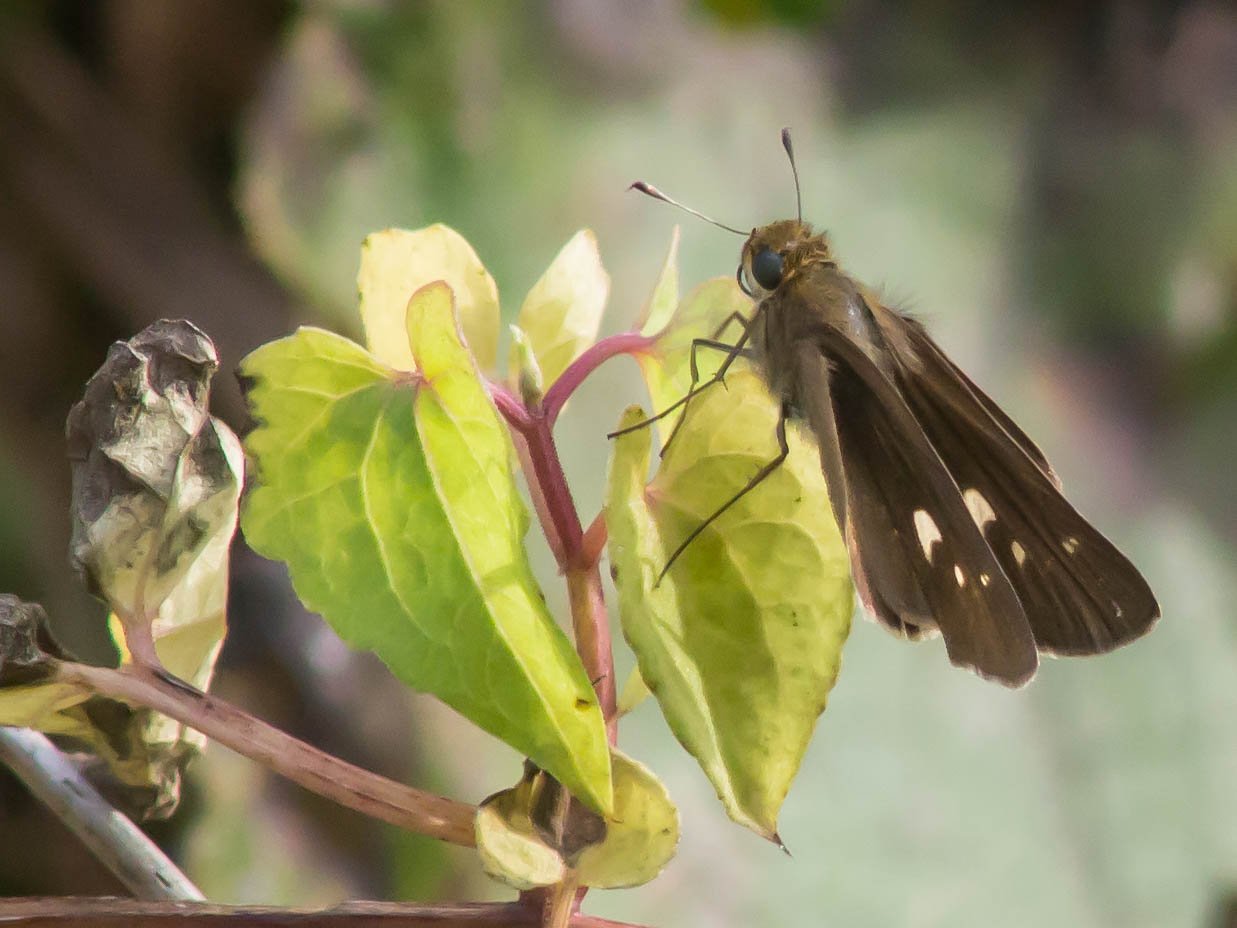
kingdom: Animalia
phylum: Arthropoda
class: Insecta
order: Lepidoptera
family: Hesperiidae
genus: Panoquina
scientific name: Panoquina ocola
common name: Ocola Skipper
